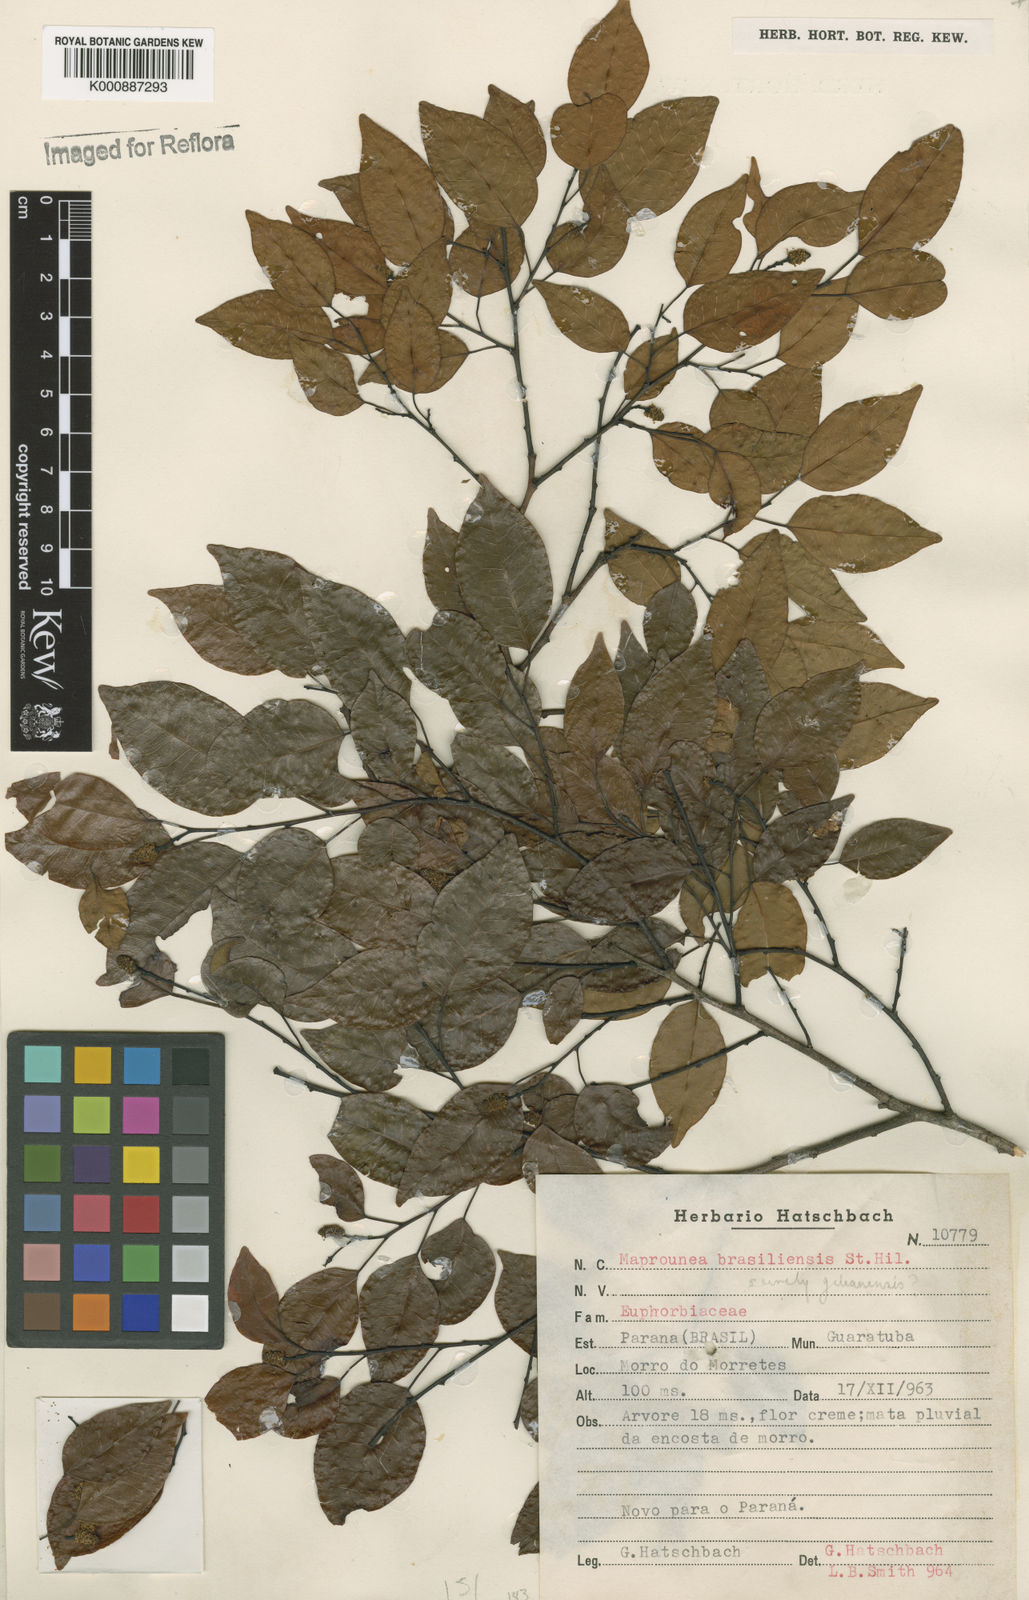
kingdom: Plantae
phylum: Tracheophyta
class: Magnoliopsida
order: Malpighiales
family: Euphorbiaceae
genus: Maprounea
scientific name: Maprounea guianensis
